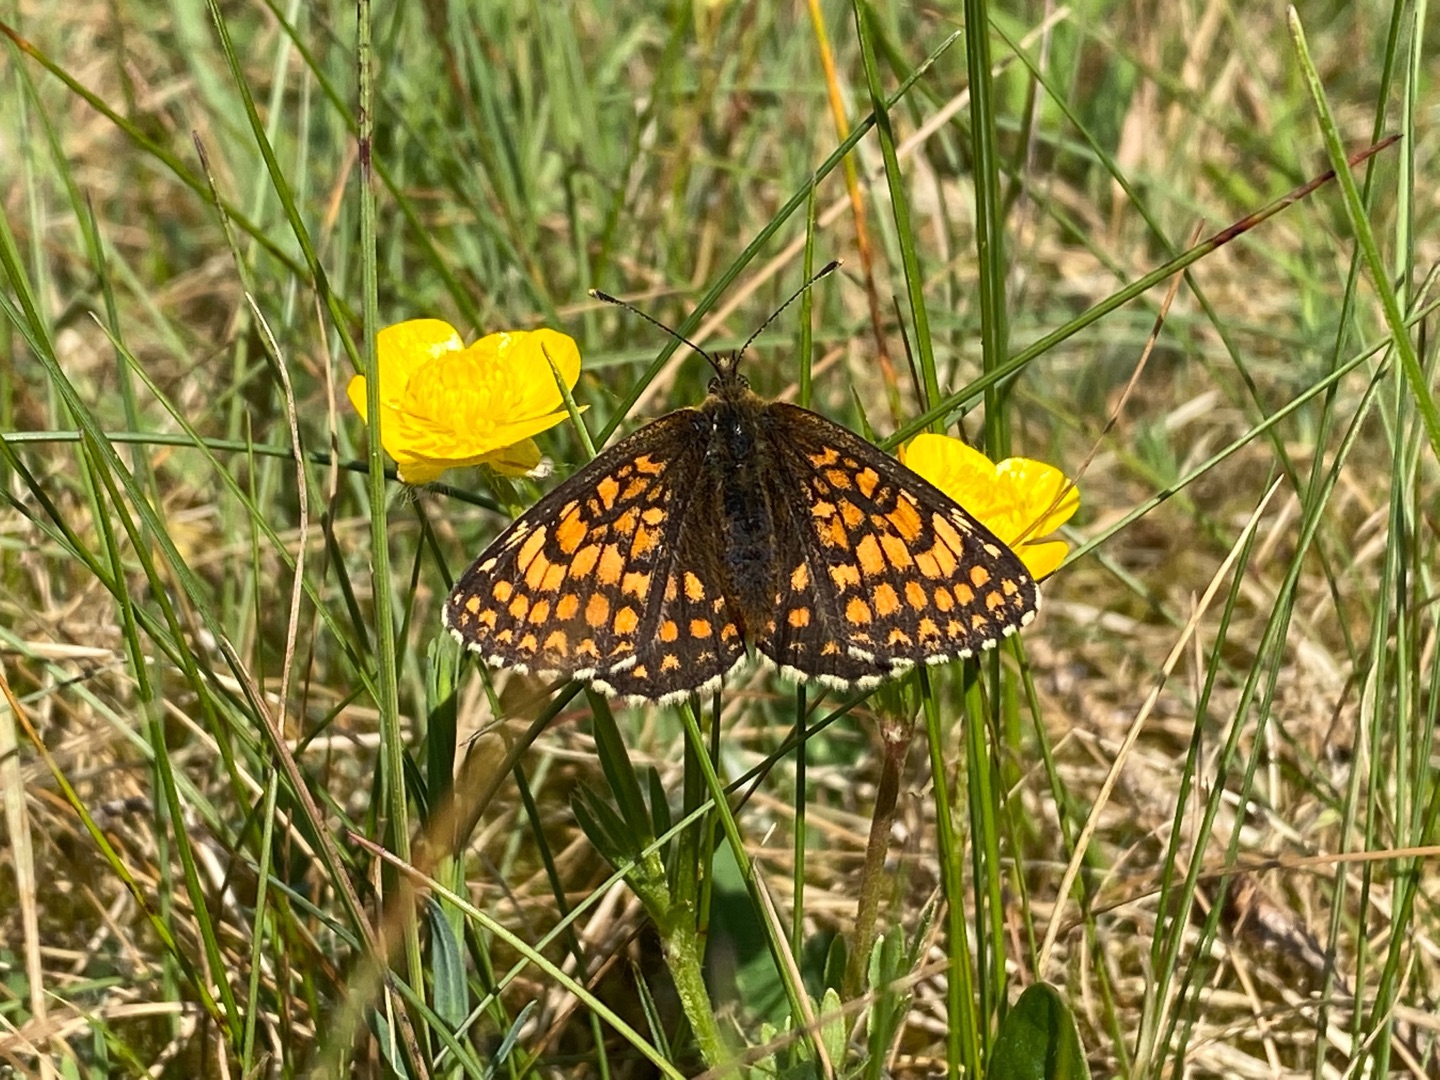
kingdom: Animalia
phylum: Arthropoda
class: Insecta
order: Lepidoptera
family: Nymphalidae
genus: Mellicta
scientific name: Mellicta athalia
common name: Brun pletvinge
